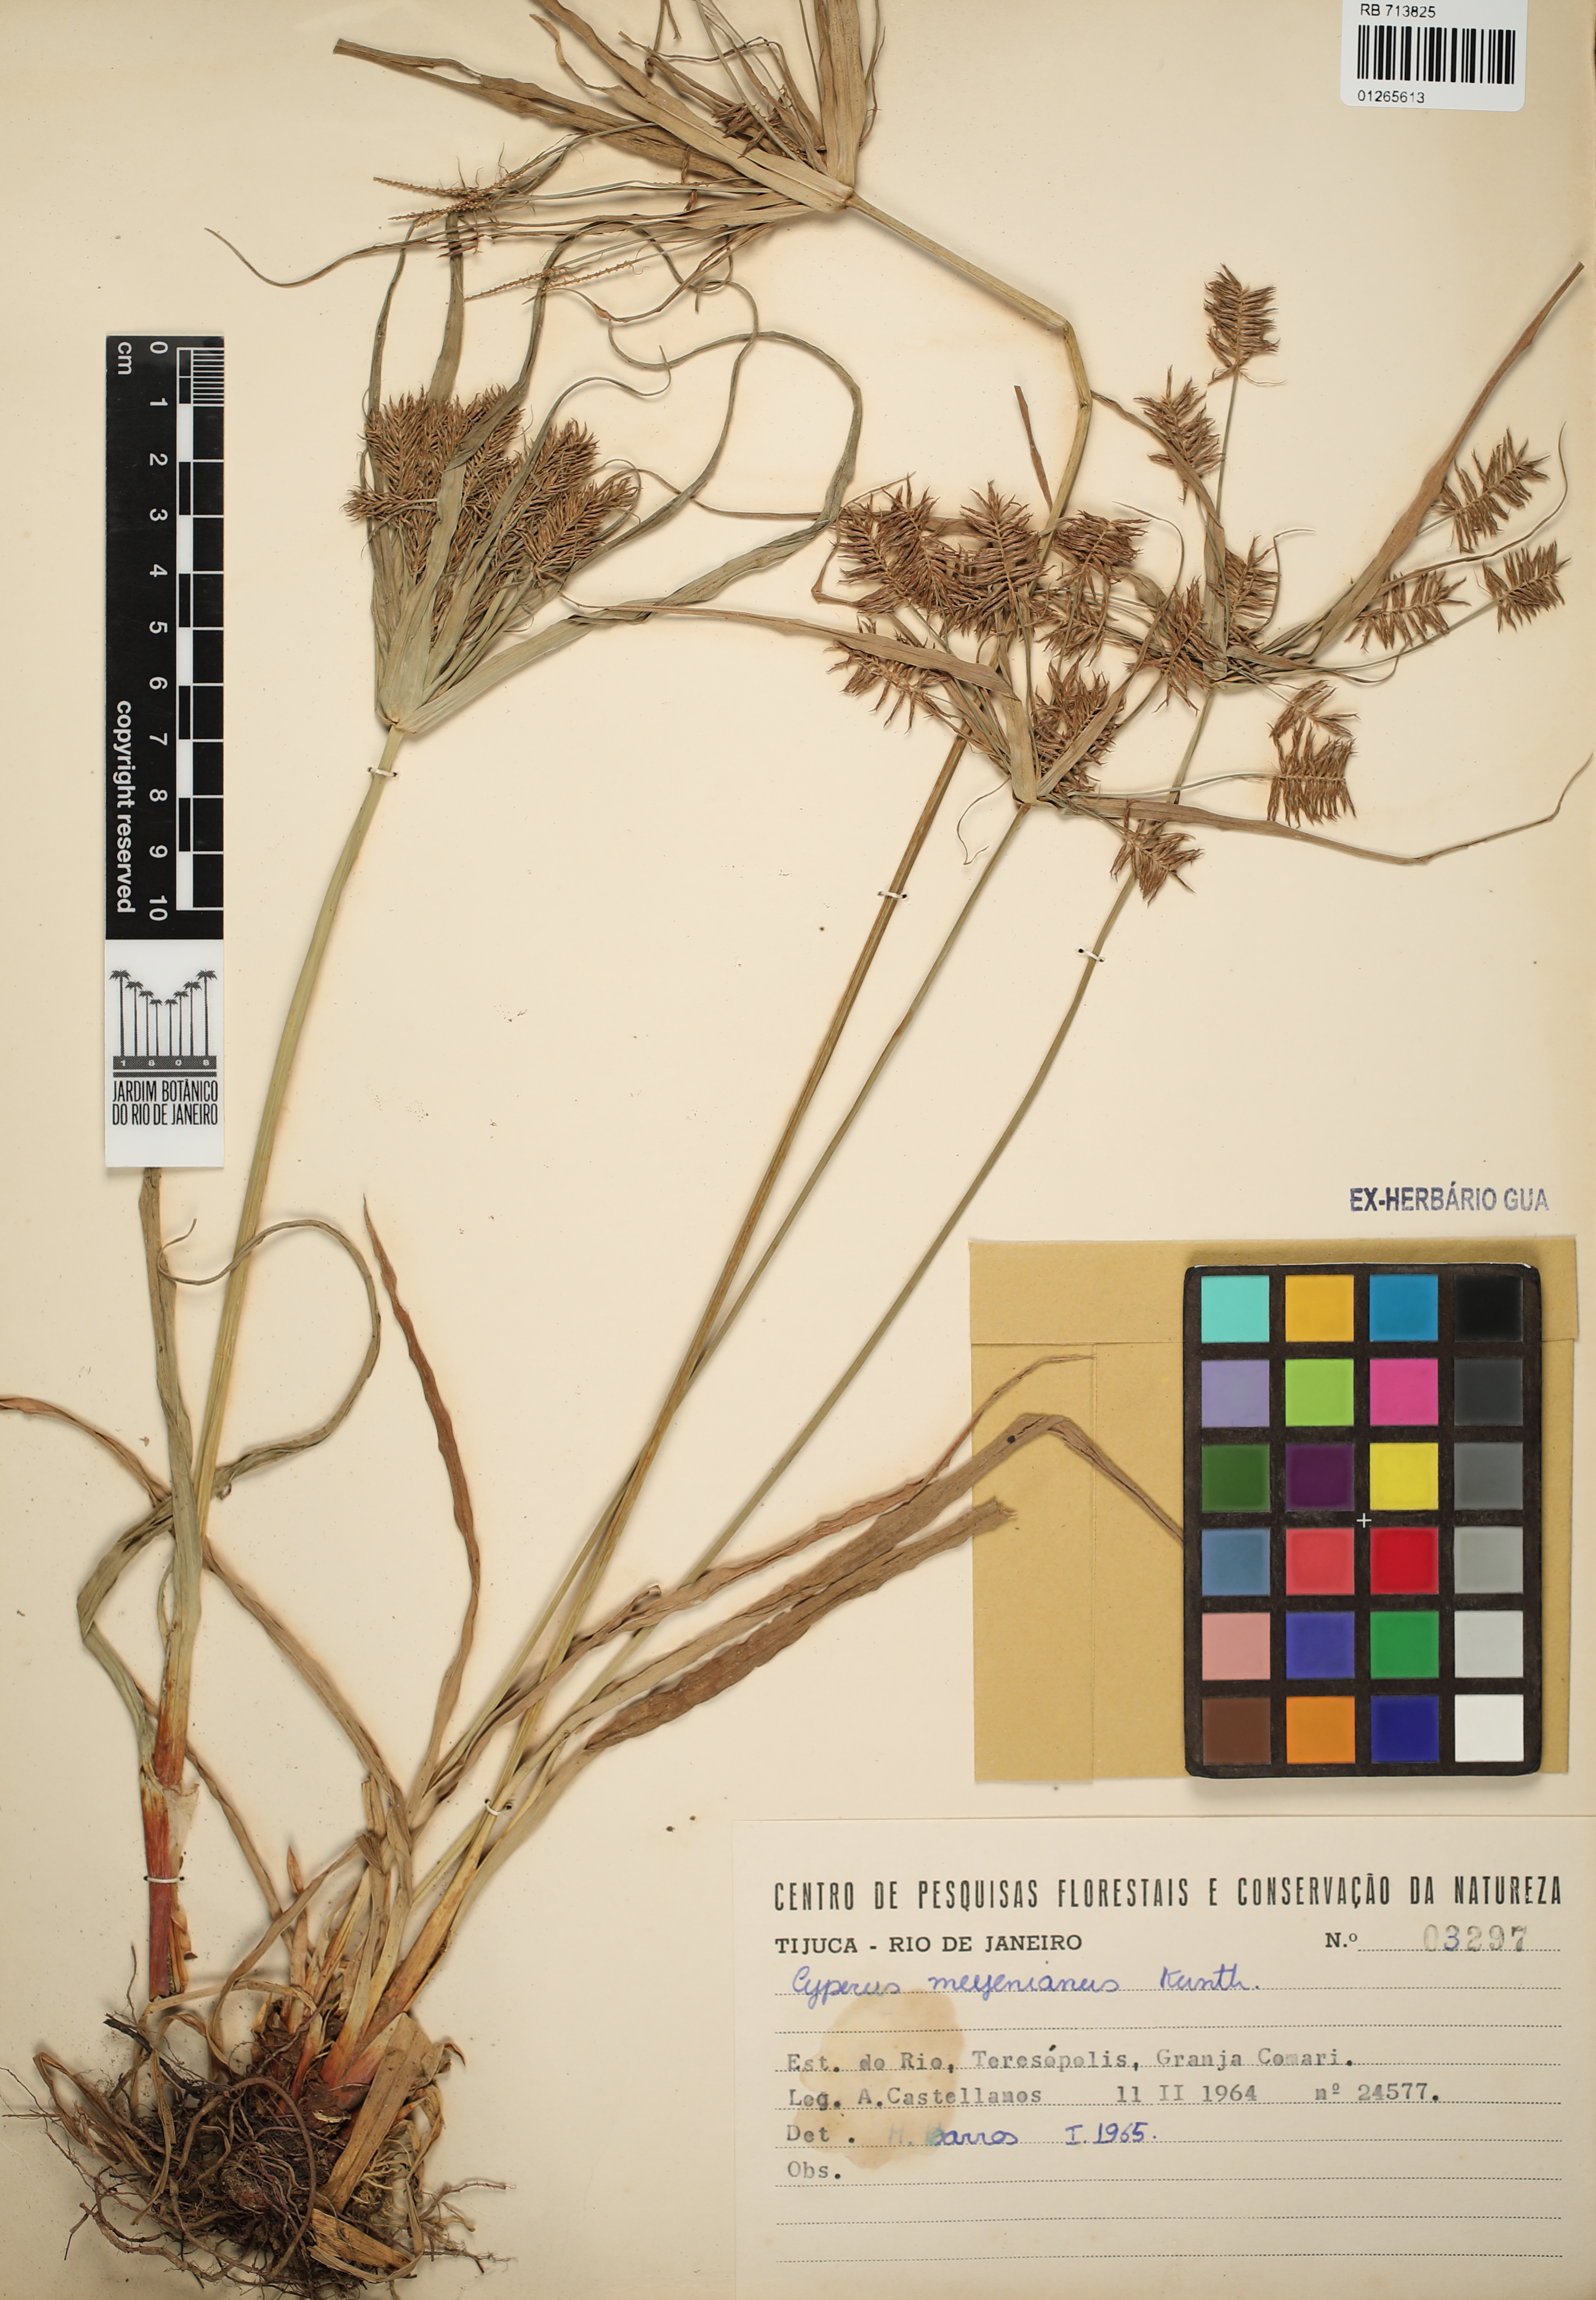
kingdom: Plantae
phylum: Tracheophyta
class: Liliopsida
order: Poales
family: Cyperaceae
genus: Cyperus
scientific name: Cyperus meyenianus
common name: Meyen's flatsedge
